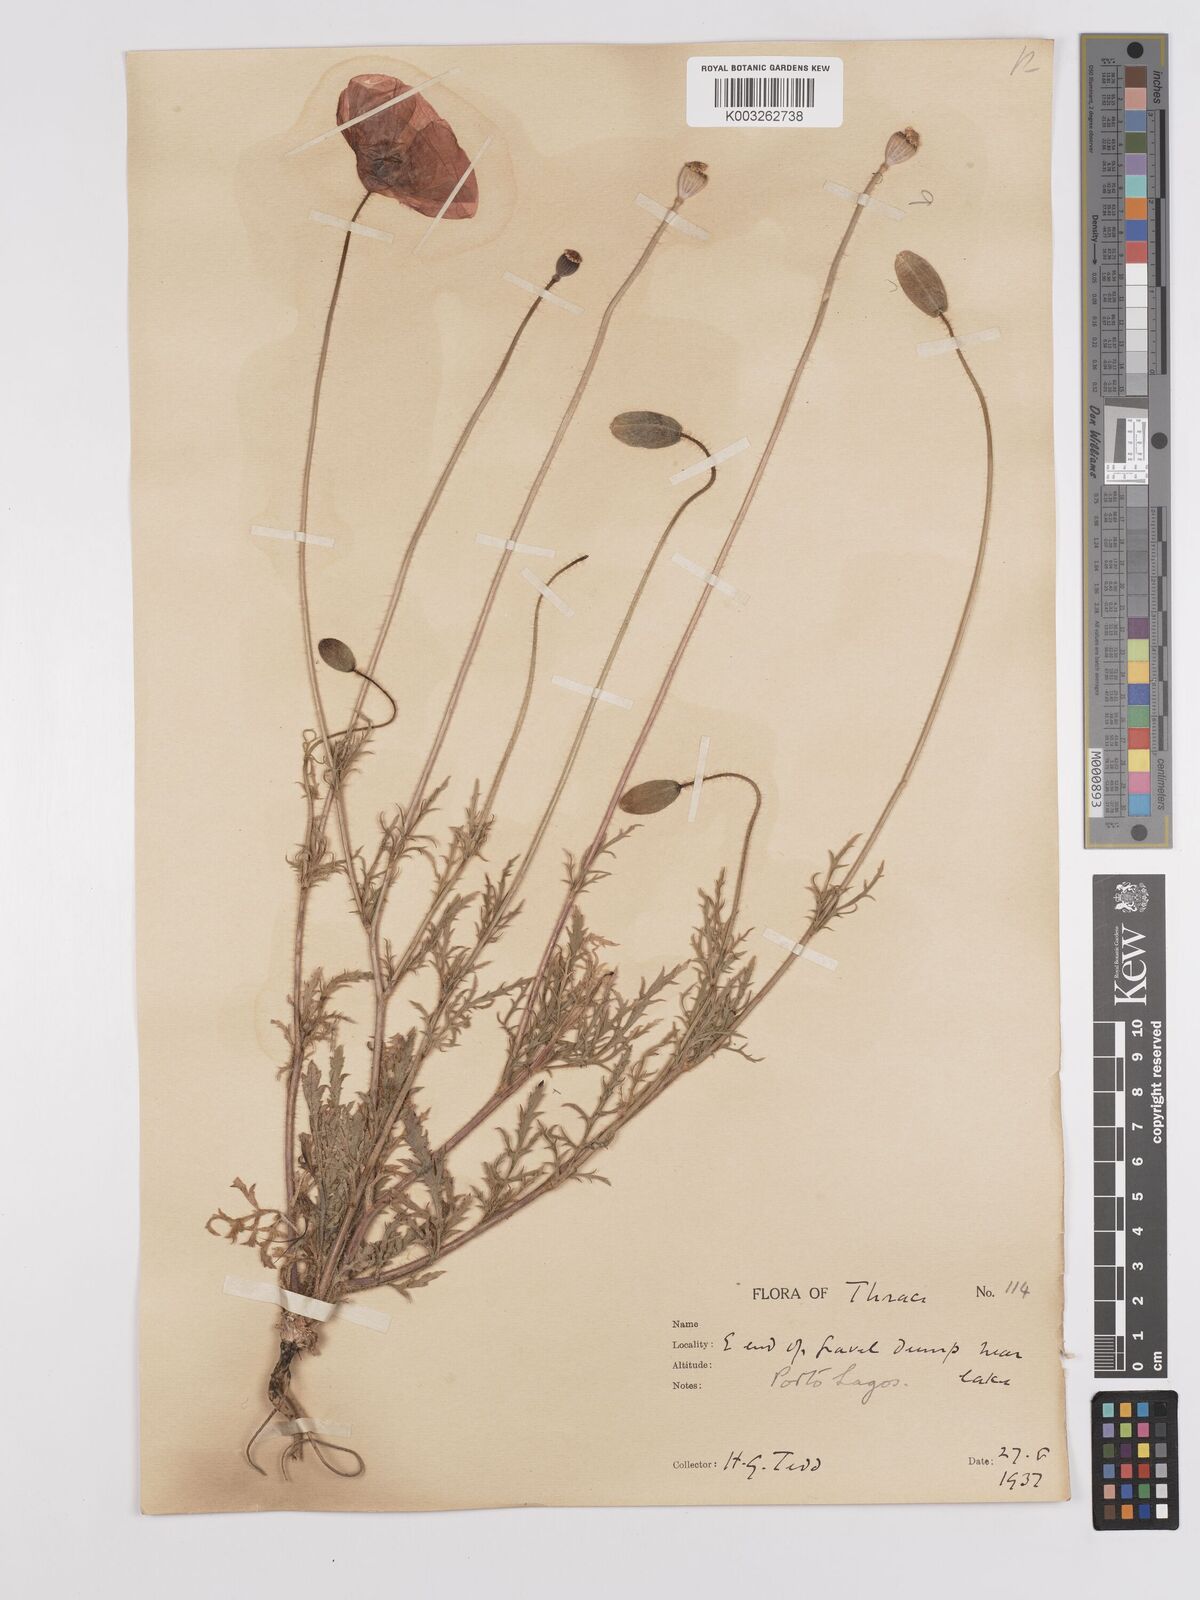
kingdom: Plantae
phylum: Tracheophyta
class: Magnoliopsida
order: Ranunculales
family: Papaveraceae
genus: Papaver
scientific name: Papaver
